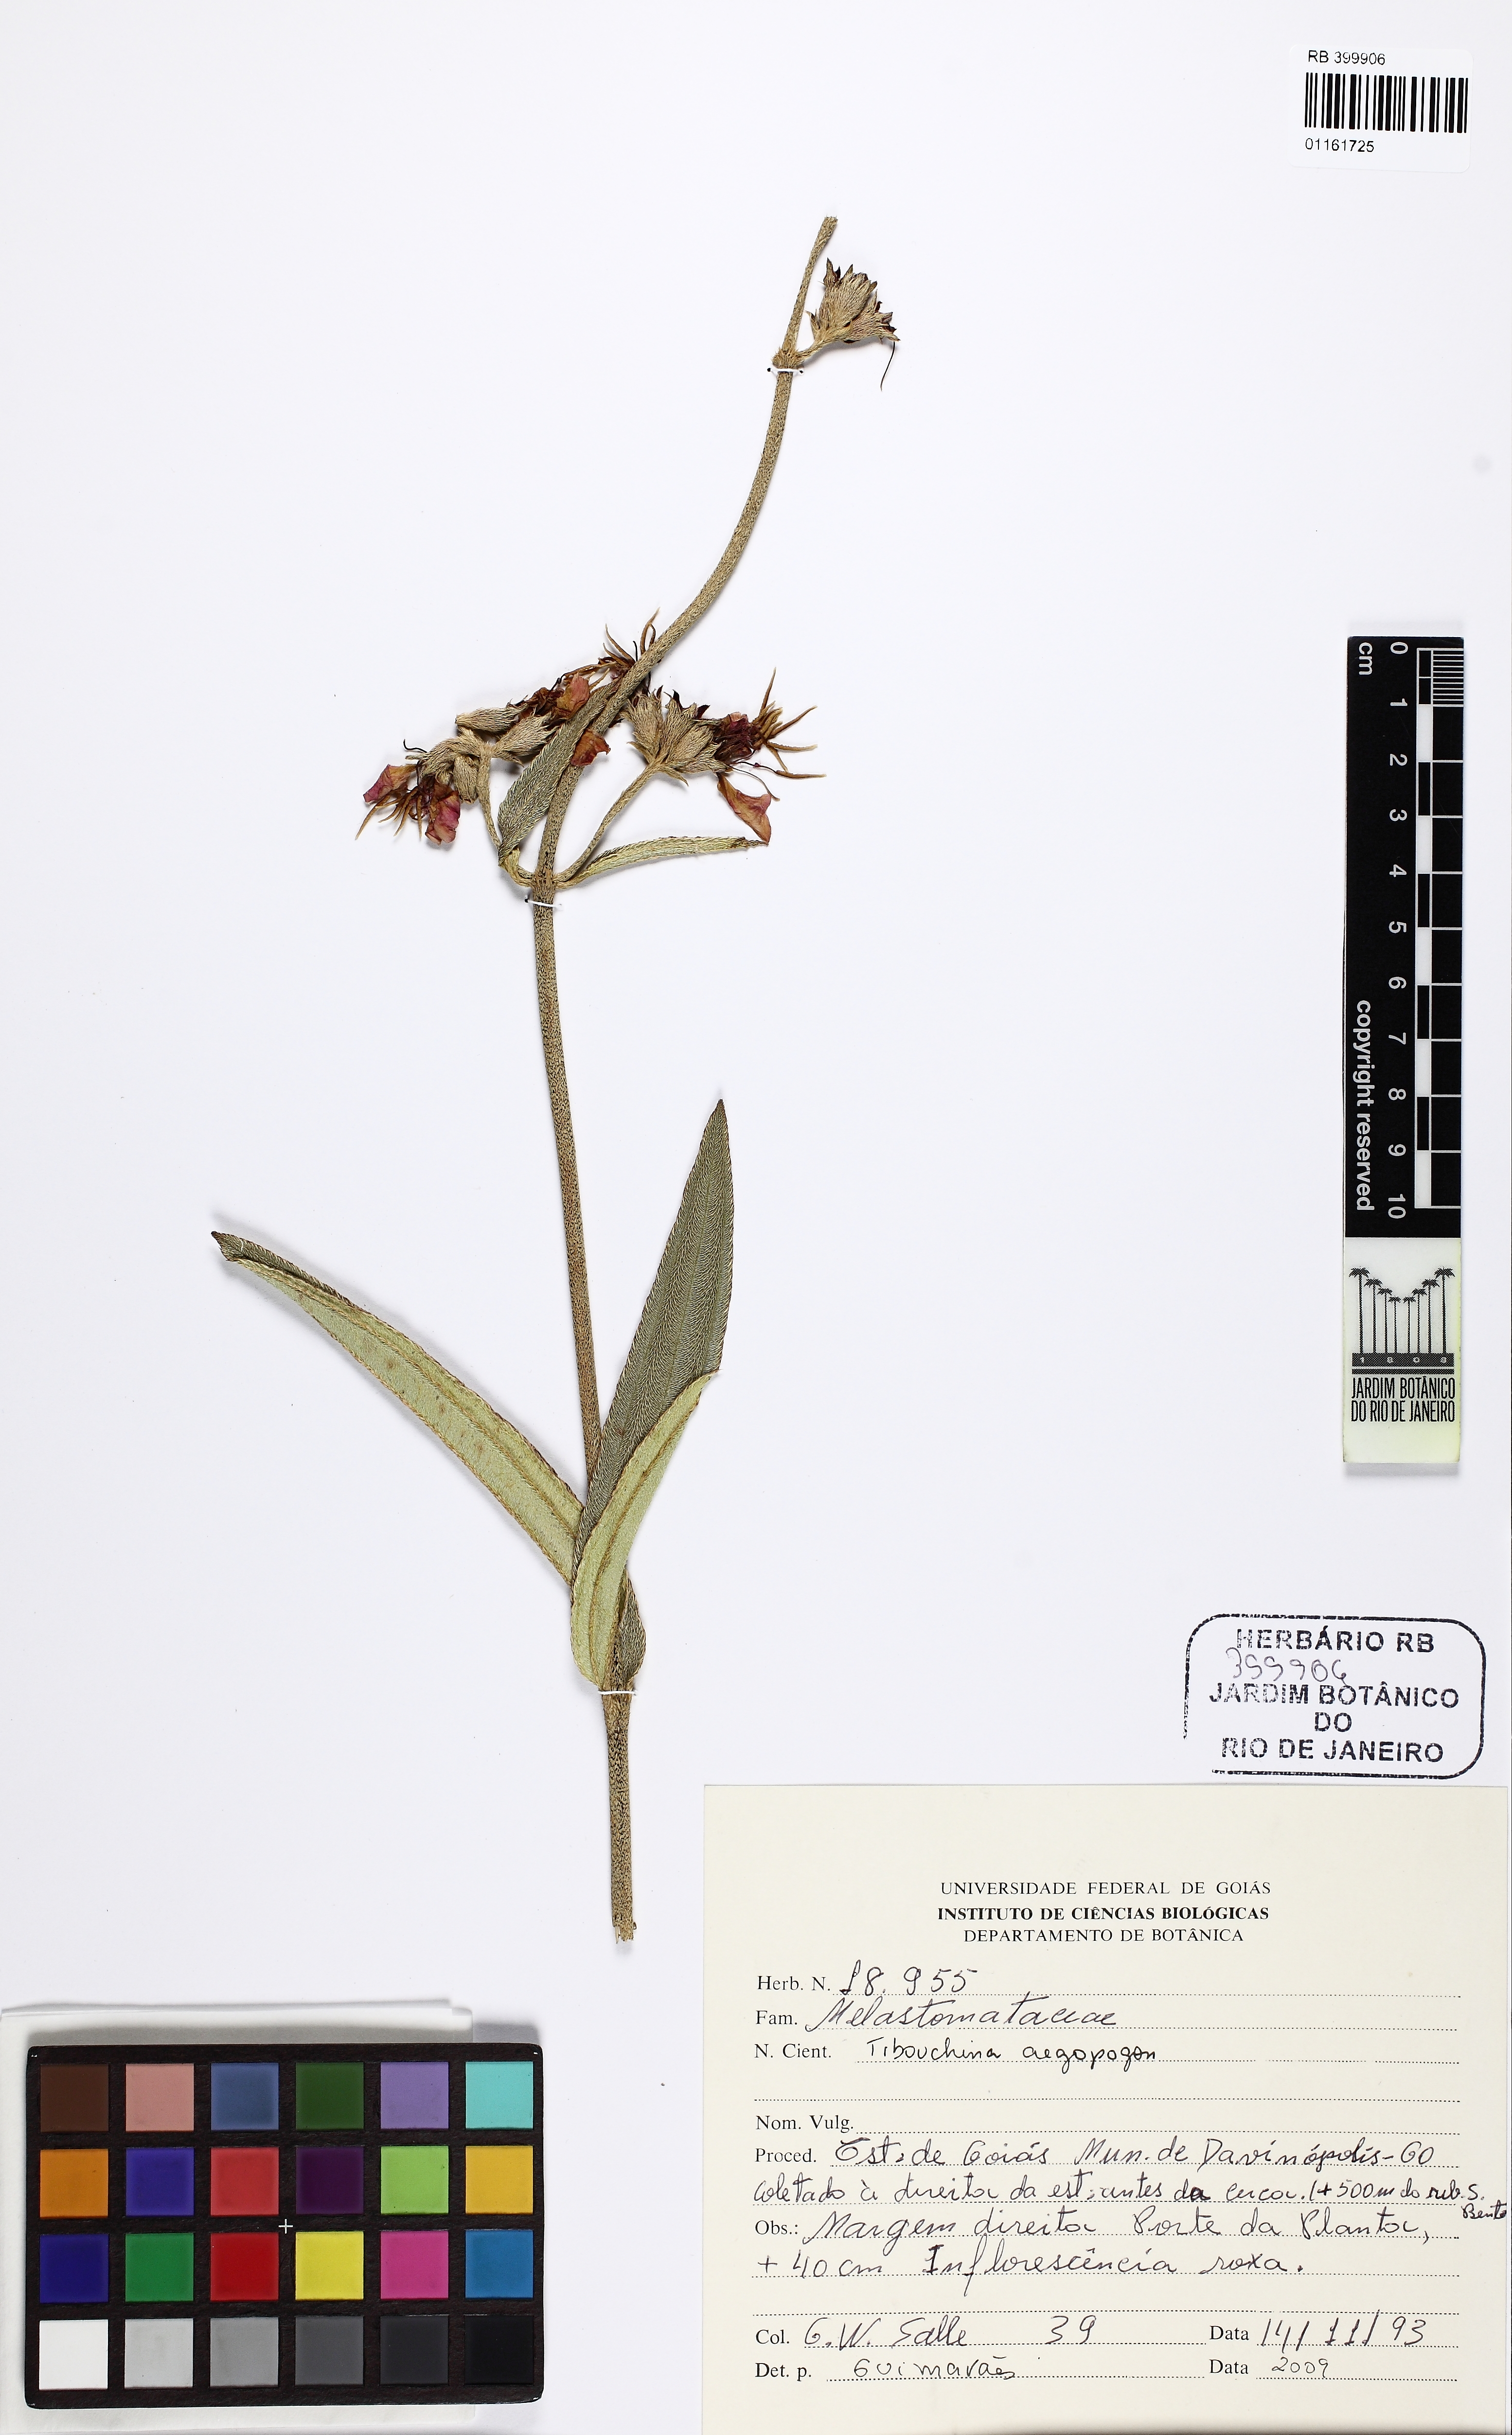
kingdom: Plantae
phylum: Tracheophyta
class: Magnoliopsida
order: Myrtales
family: Melastomataceae
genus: Pleroma
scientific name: Pleroma aegopogon
